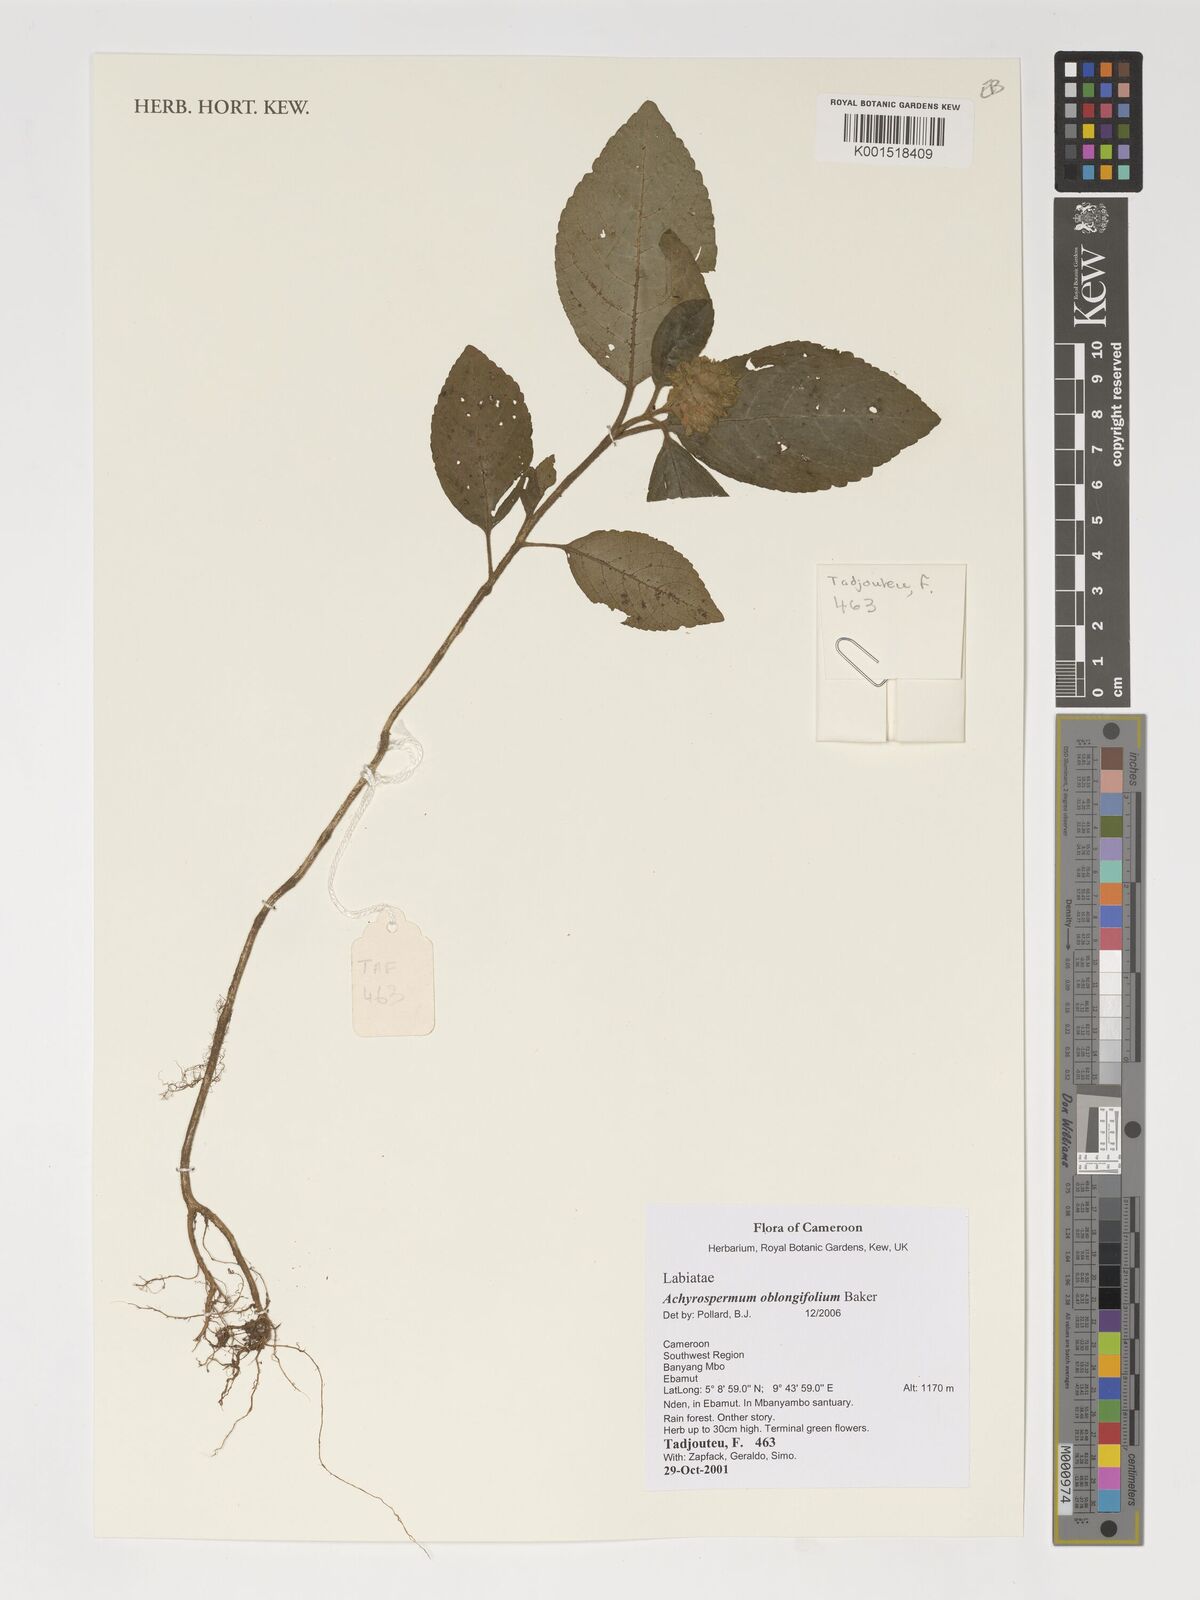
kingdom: Plantae
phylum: Tracheophyta
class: Magnoliopsida
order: Lamiales
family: Lamiaceae
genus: Achyrospermum
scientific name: Achyrospermum oblongifolium
